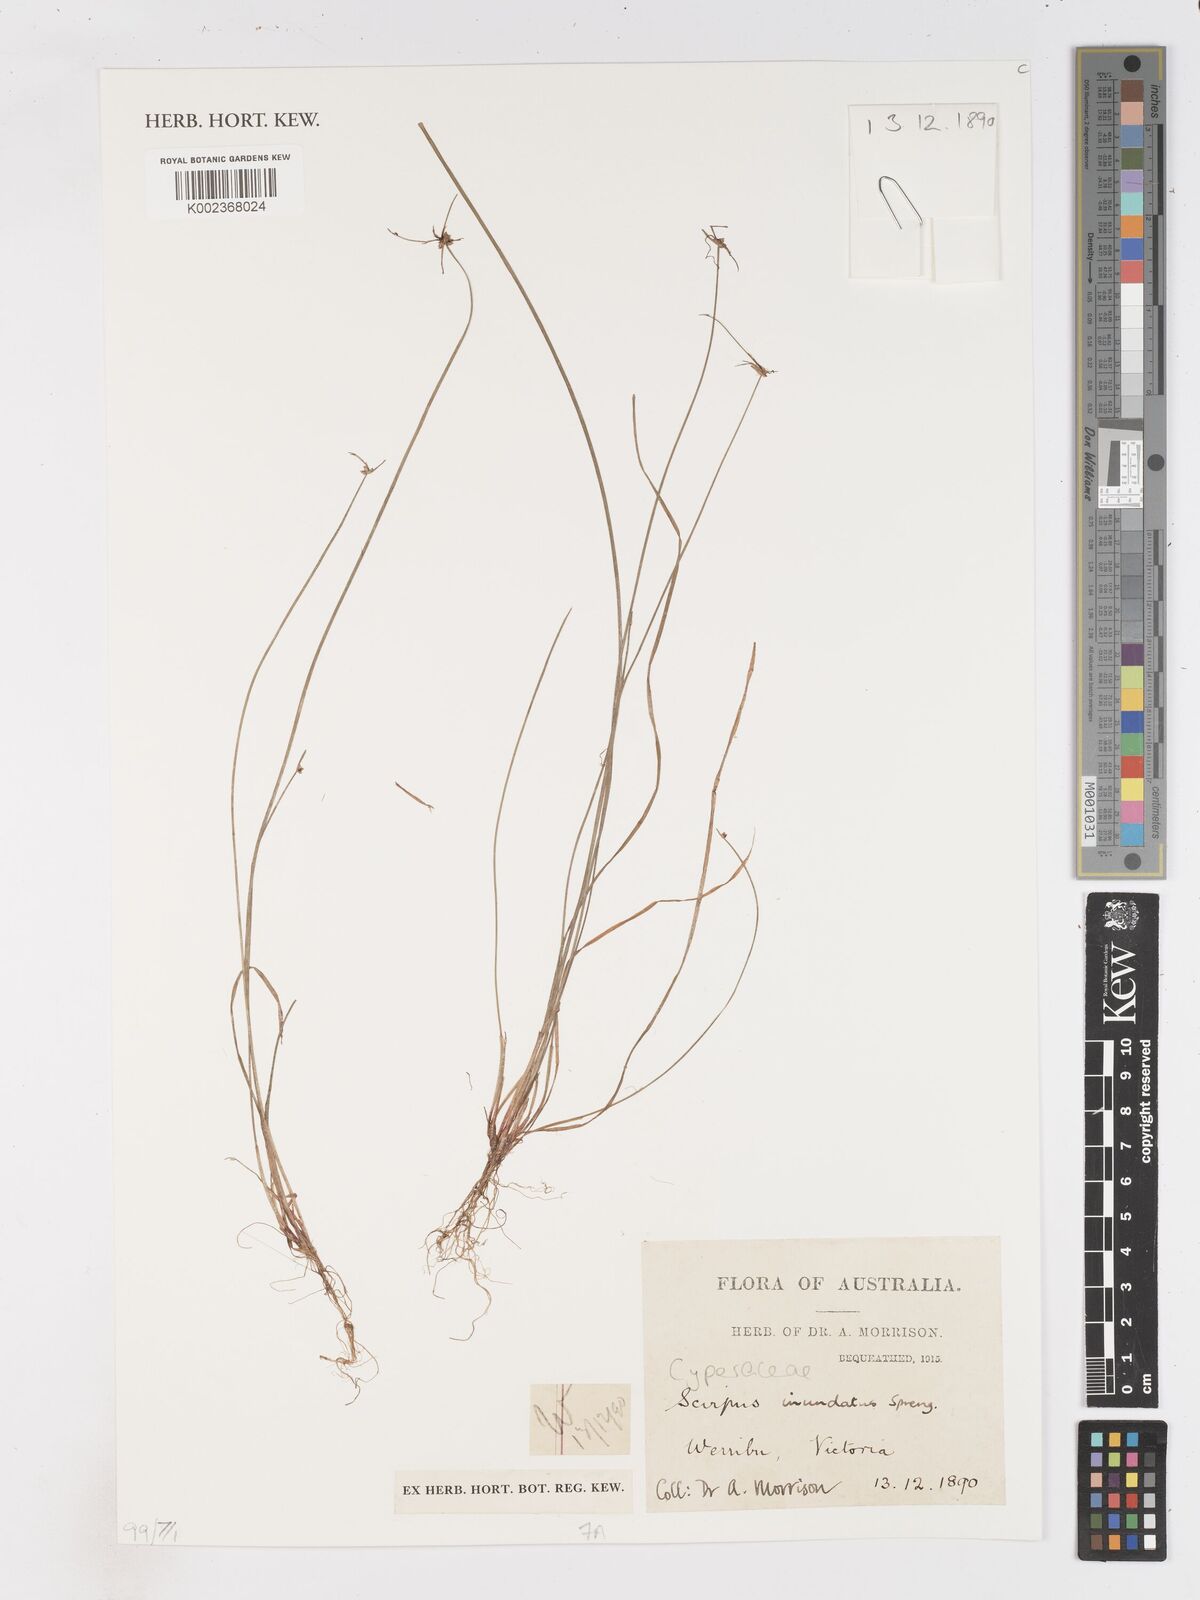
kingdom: Plantae
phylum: Tracheophyta
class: Liliopsida
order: Poales
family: Cyperaceae
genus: Isolepis
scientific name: Isolepis inundata
